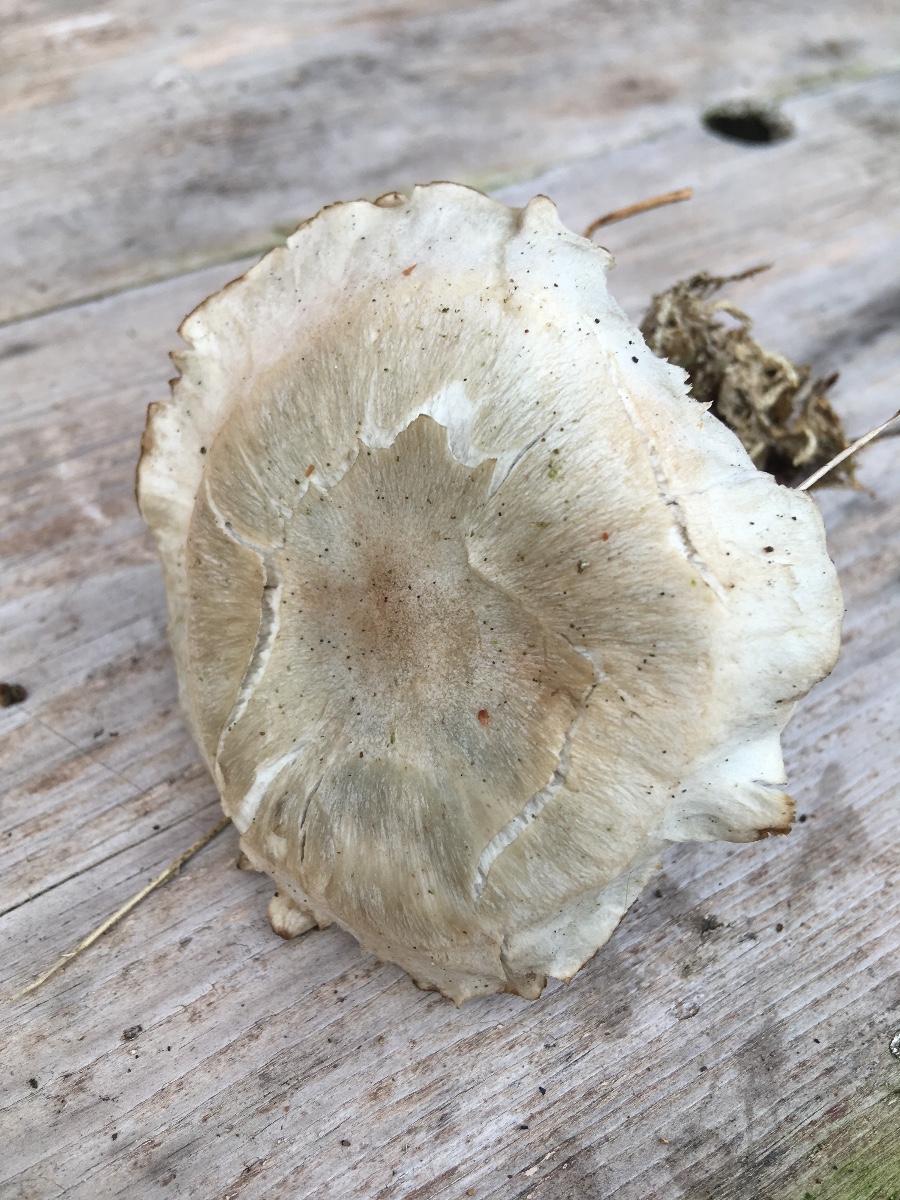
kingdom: Fungi
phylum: Basidiomycota
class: Agaricomycetes
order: Agaricales
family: Tricholomataceae
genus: Clitocybe
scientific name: Clitocybe odora
